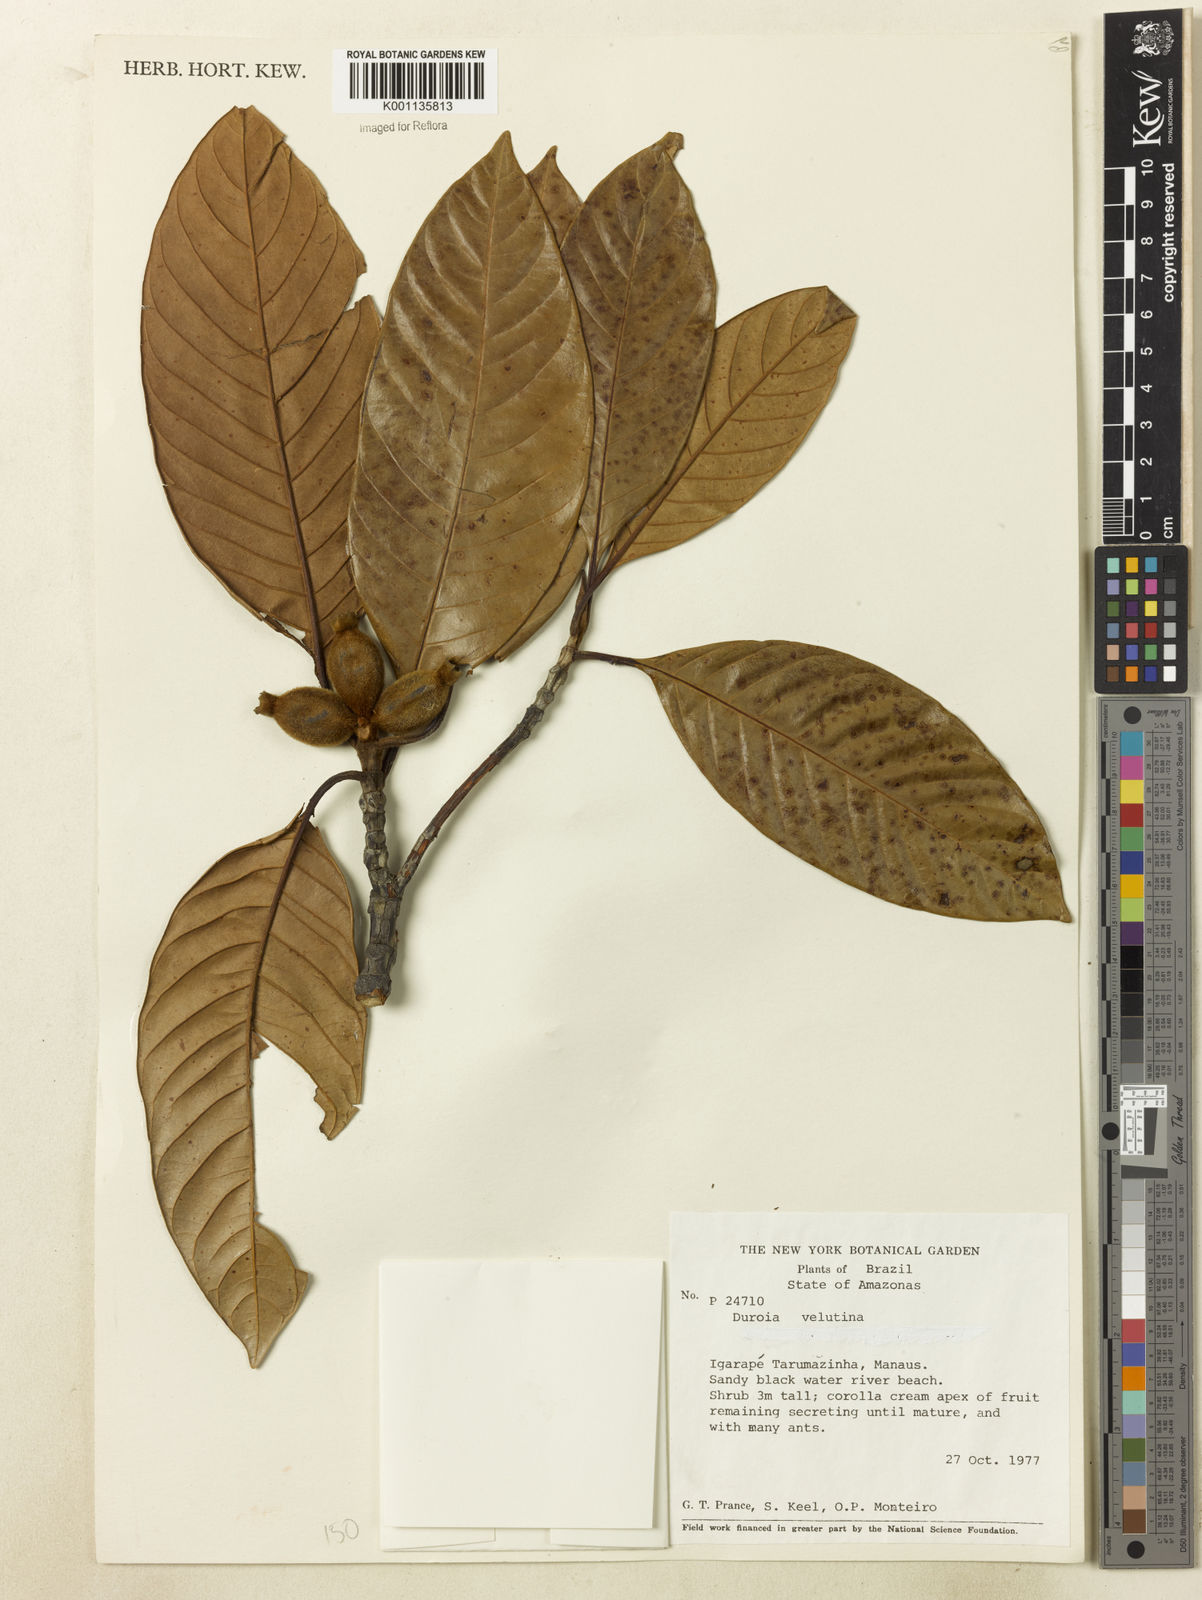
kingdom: Plantae
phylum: Tracheophyta
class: Magnoliopsida
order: Gentianales
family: Rubiaceae
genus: Duroia
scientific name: Duroia velutina
